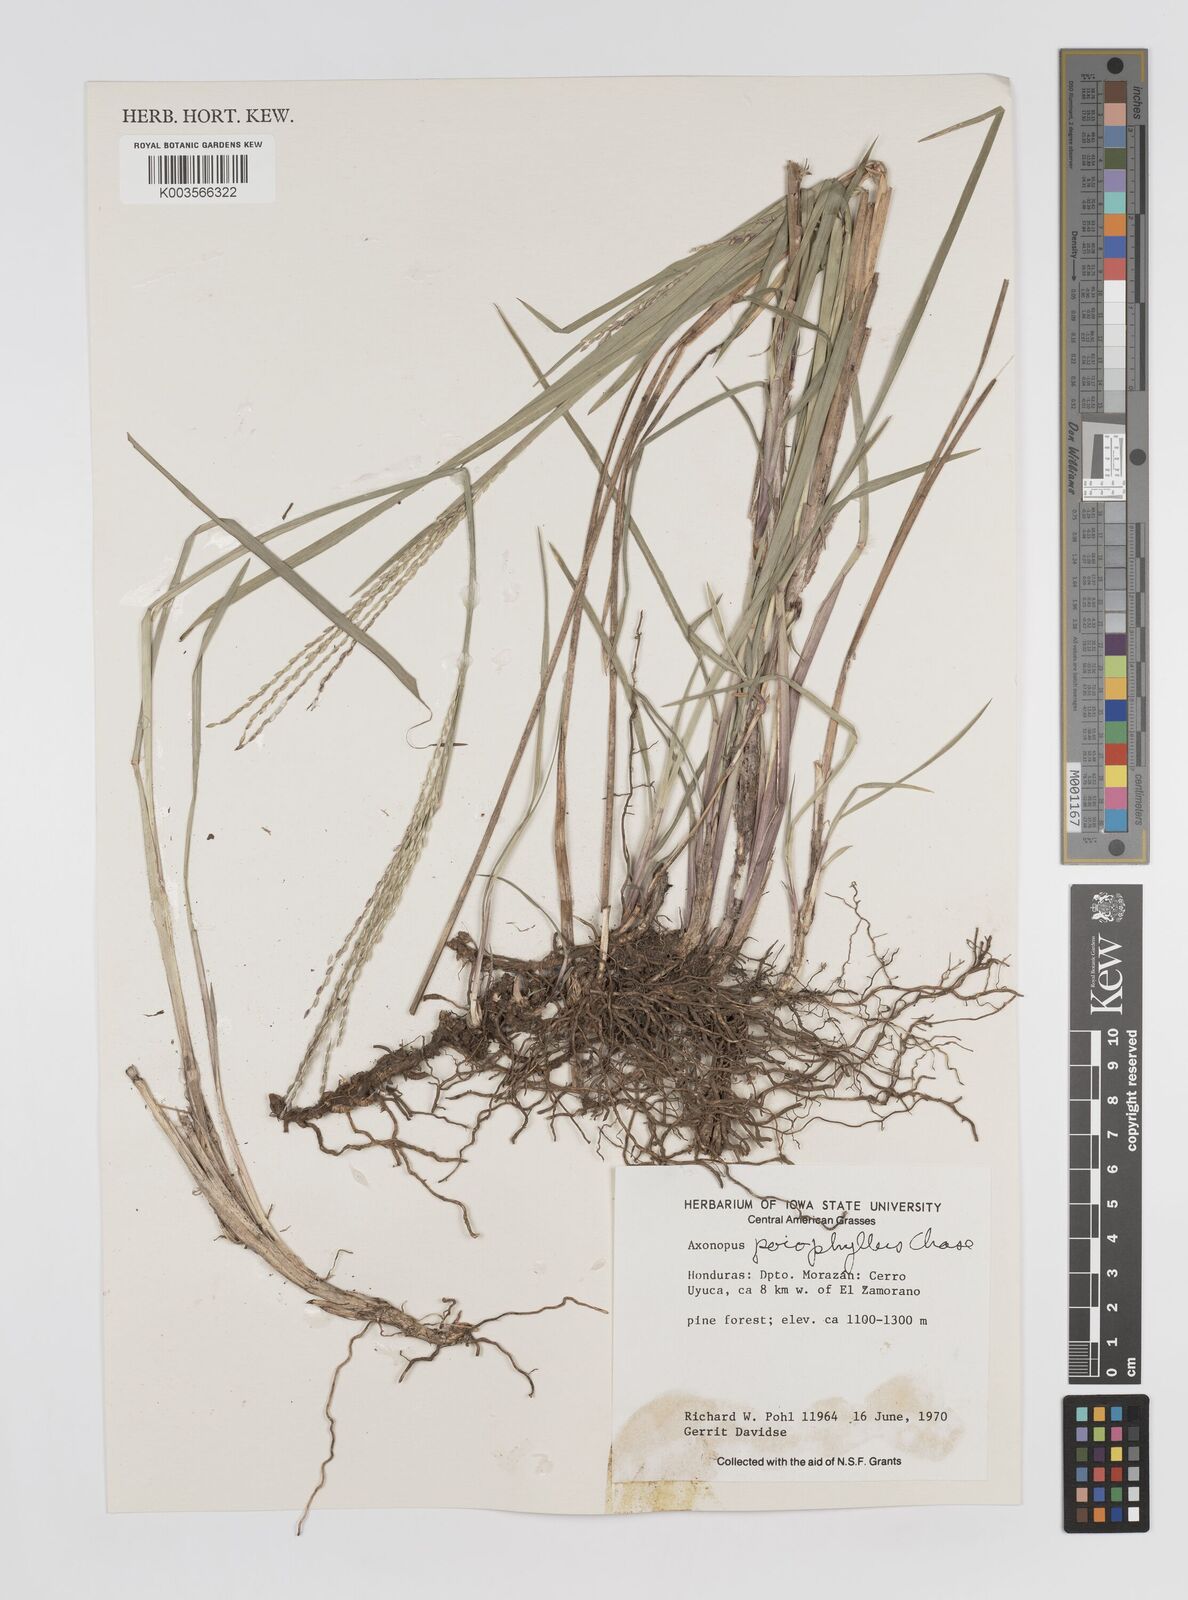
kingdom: Plantae
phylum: Tracheophyta
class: Liliopsida
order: Poales
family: Poaceae
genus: Axonopus
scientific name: Axonopus
